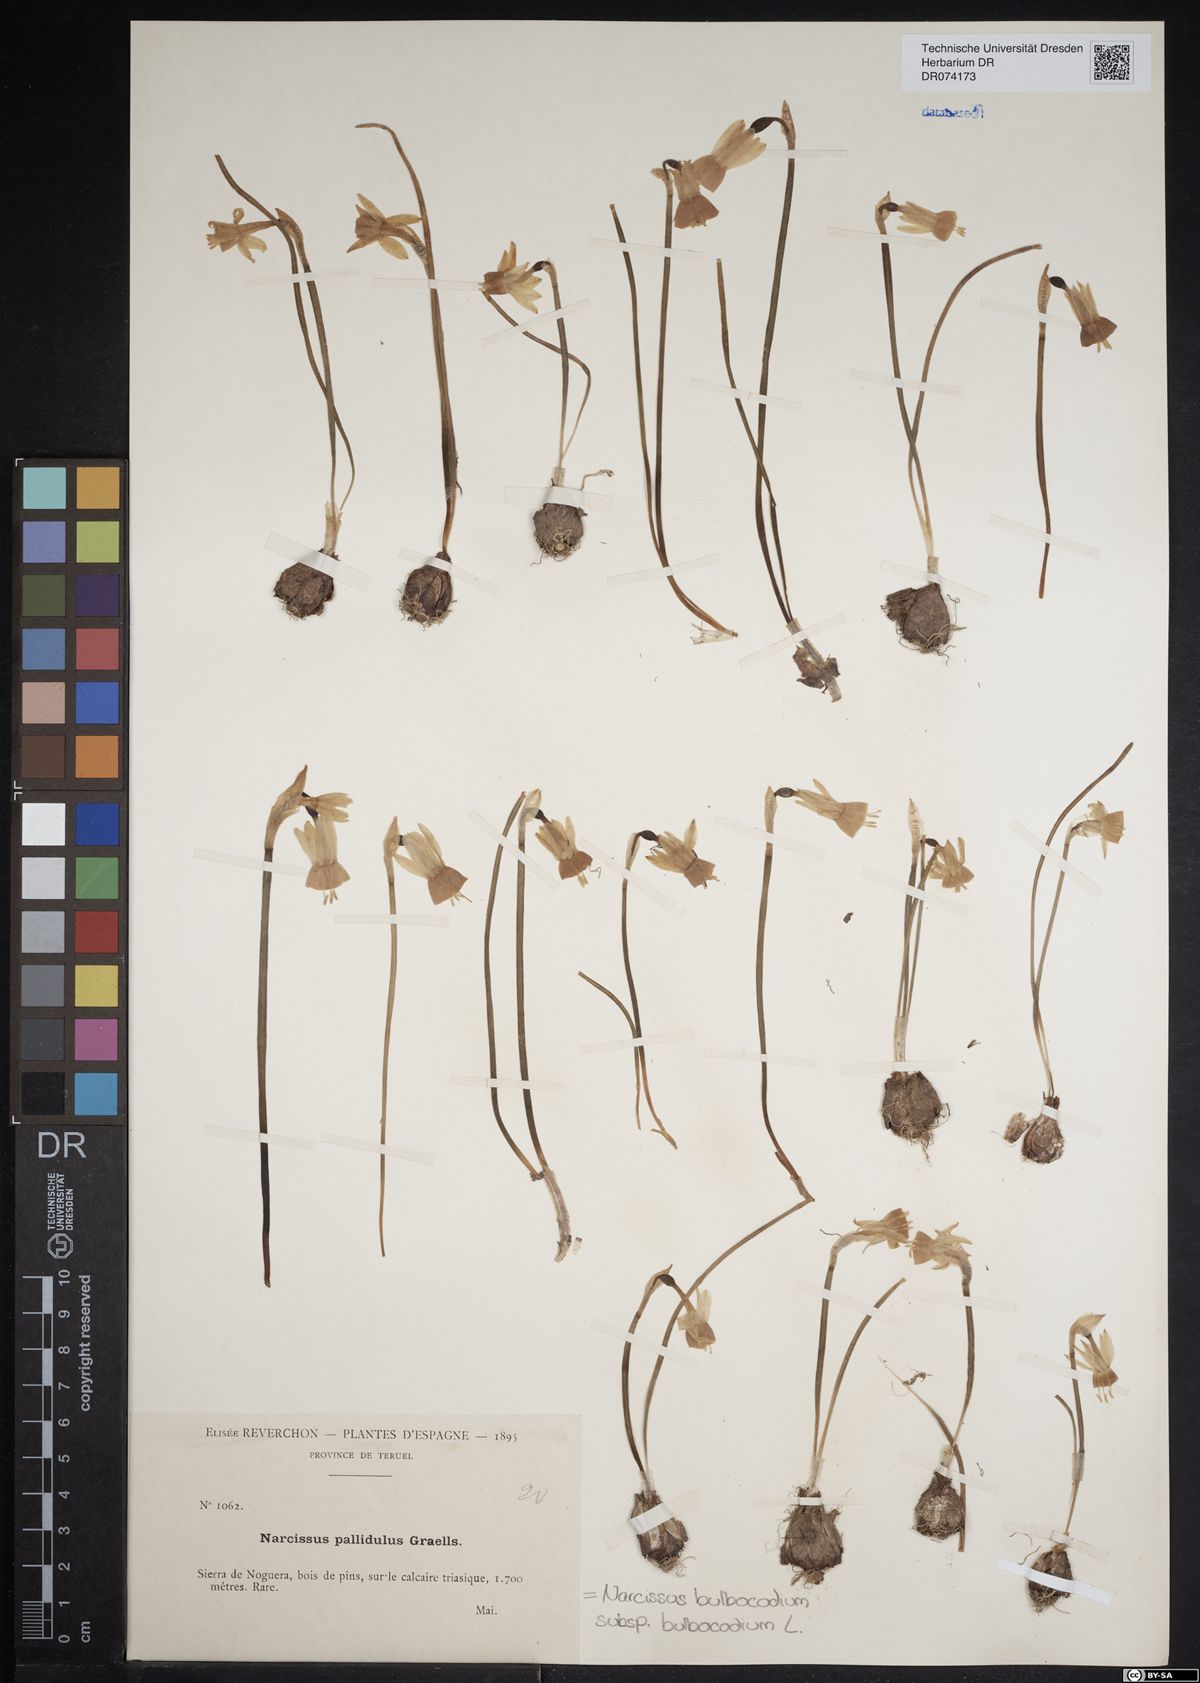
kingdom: Plantae
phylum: Tracheophyta
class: Liliopsida
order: Asparagales
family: Amaryllidaceae
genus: Narcissus
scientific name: Narcissus bulbocodium
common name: Hoop-petticoat daffodil
